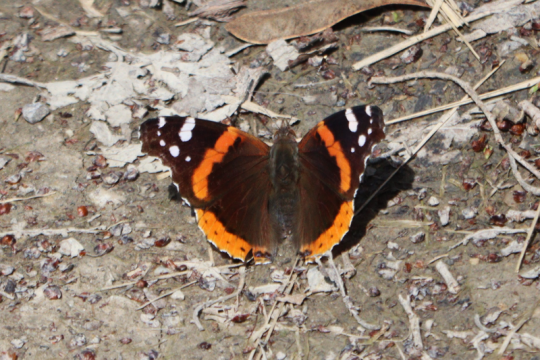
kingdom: Animalia
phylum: Arthropoda
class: Insecta
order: Lepidoptera
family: Nymphalidae
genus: Vanessa
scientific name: Vanessa atalanta
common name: Red Admiral
